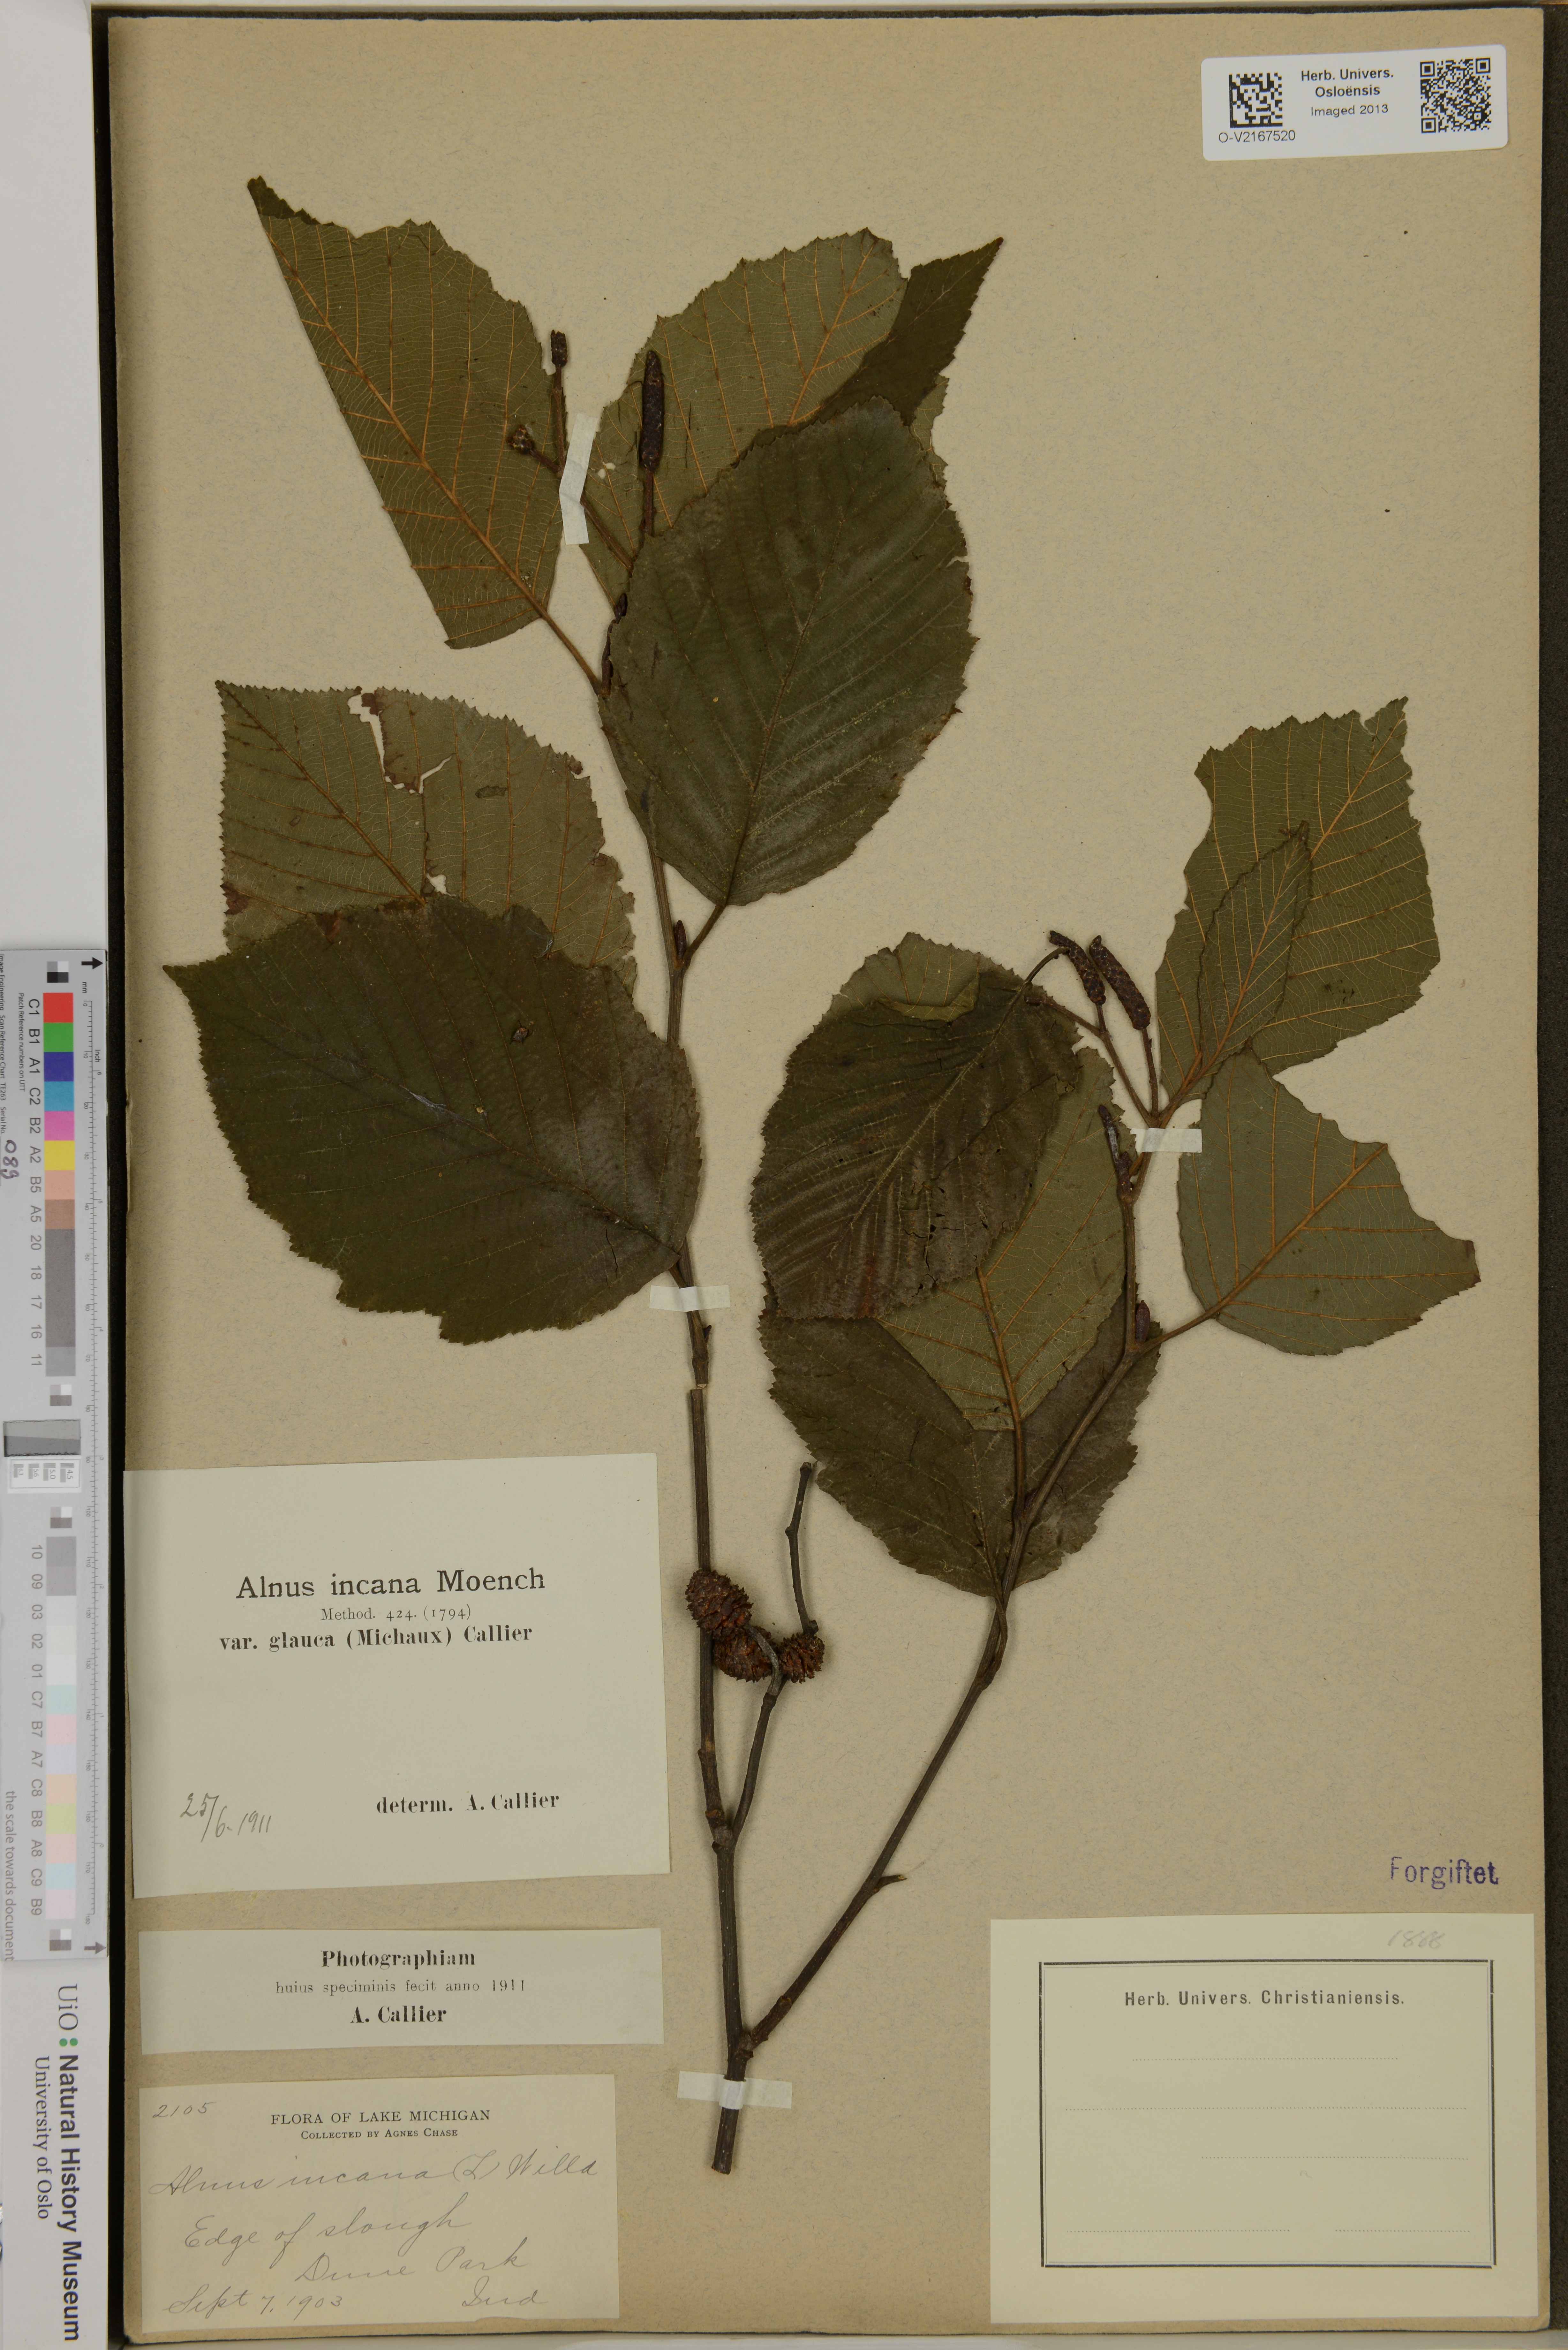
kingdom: Plantae
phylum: Tracheophyta
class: Magnoliopsida
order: Fagales
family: Betulaceae
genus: Alnus
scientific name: Alnus incana
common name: Grey alder
